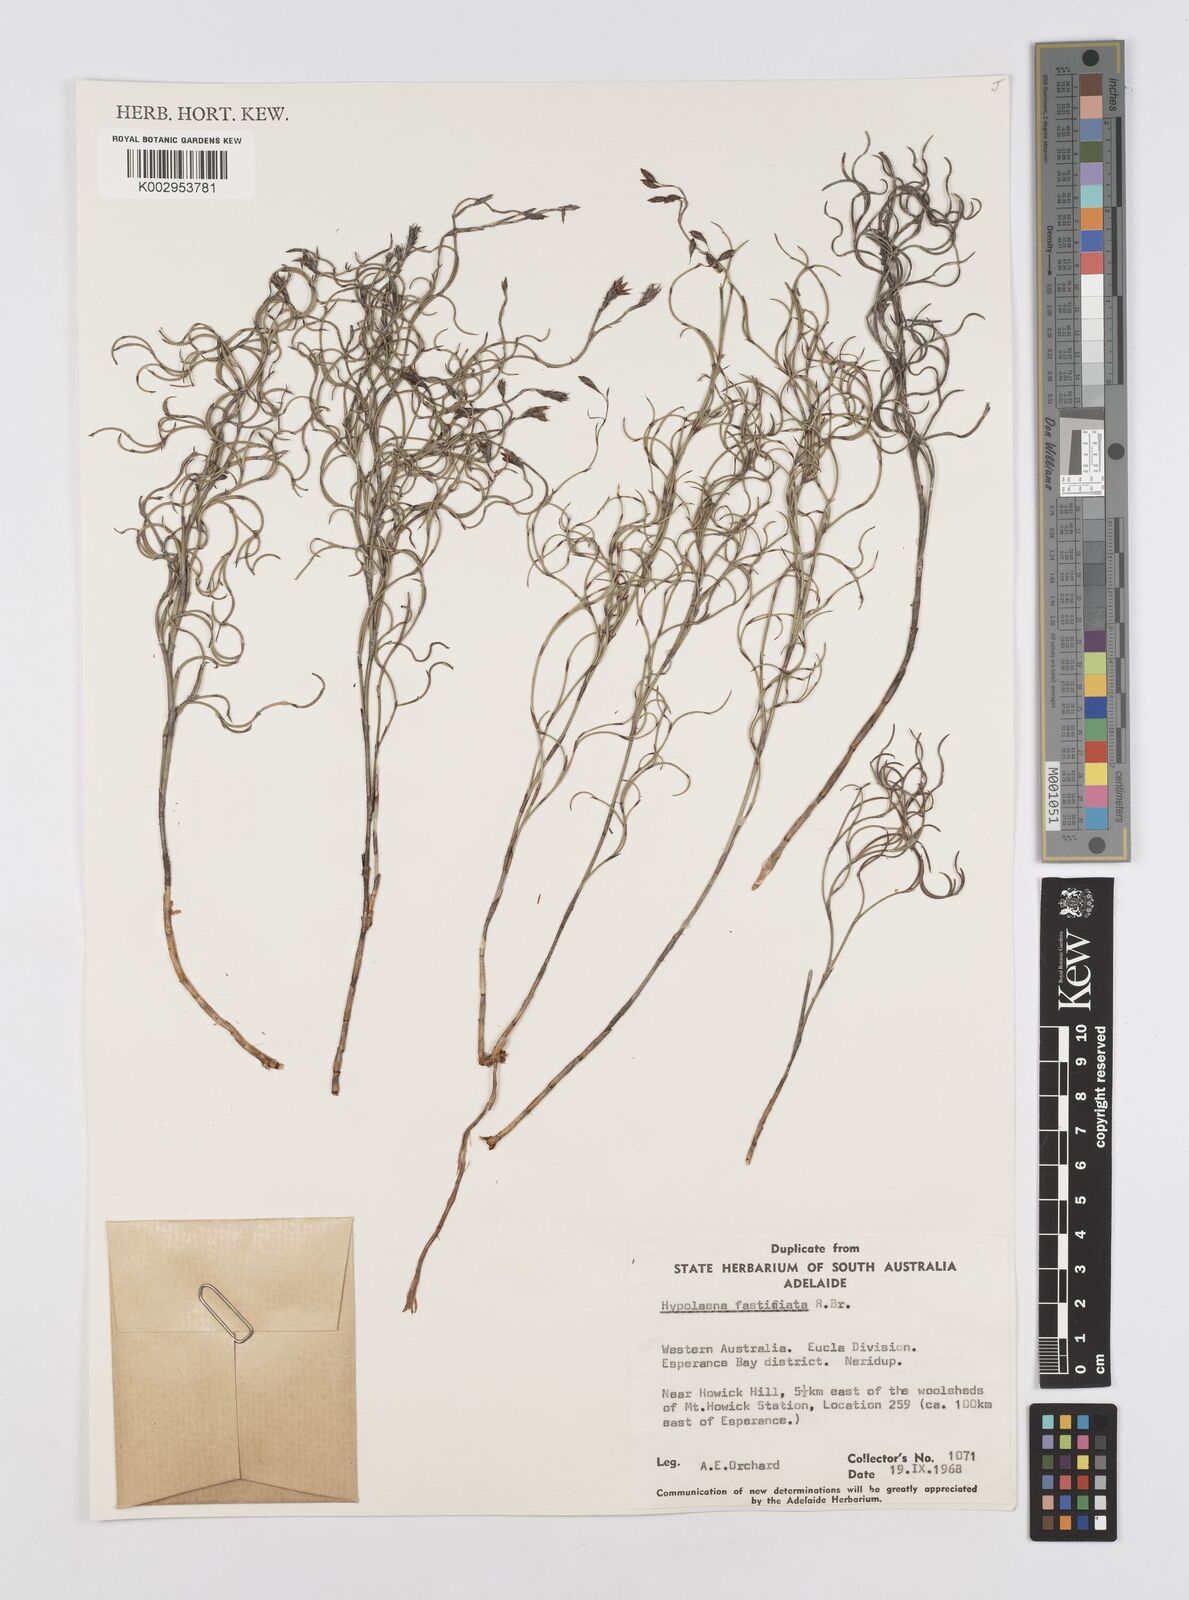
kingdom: Plantae
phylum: Tracheophyta
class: Liliopsida
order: Poales
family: Restionaceae
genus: Hypolaena
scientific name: Hypolaena fastigiata
